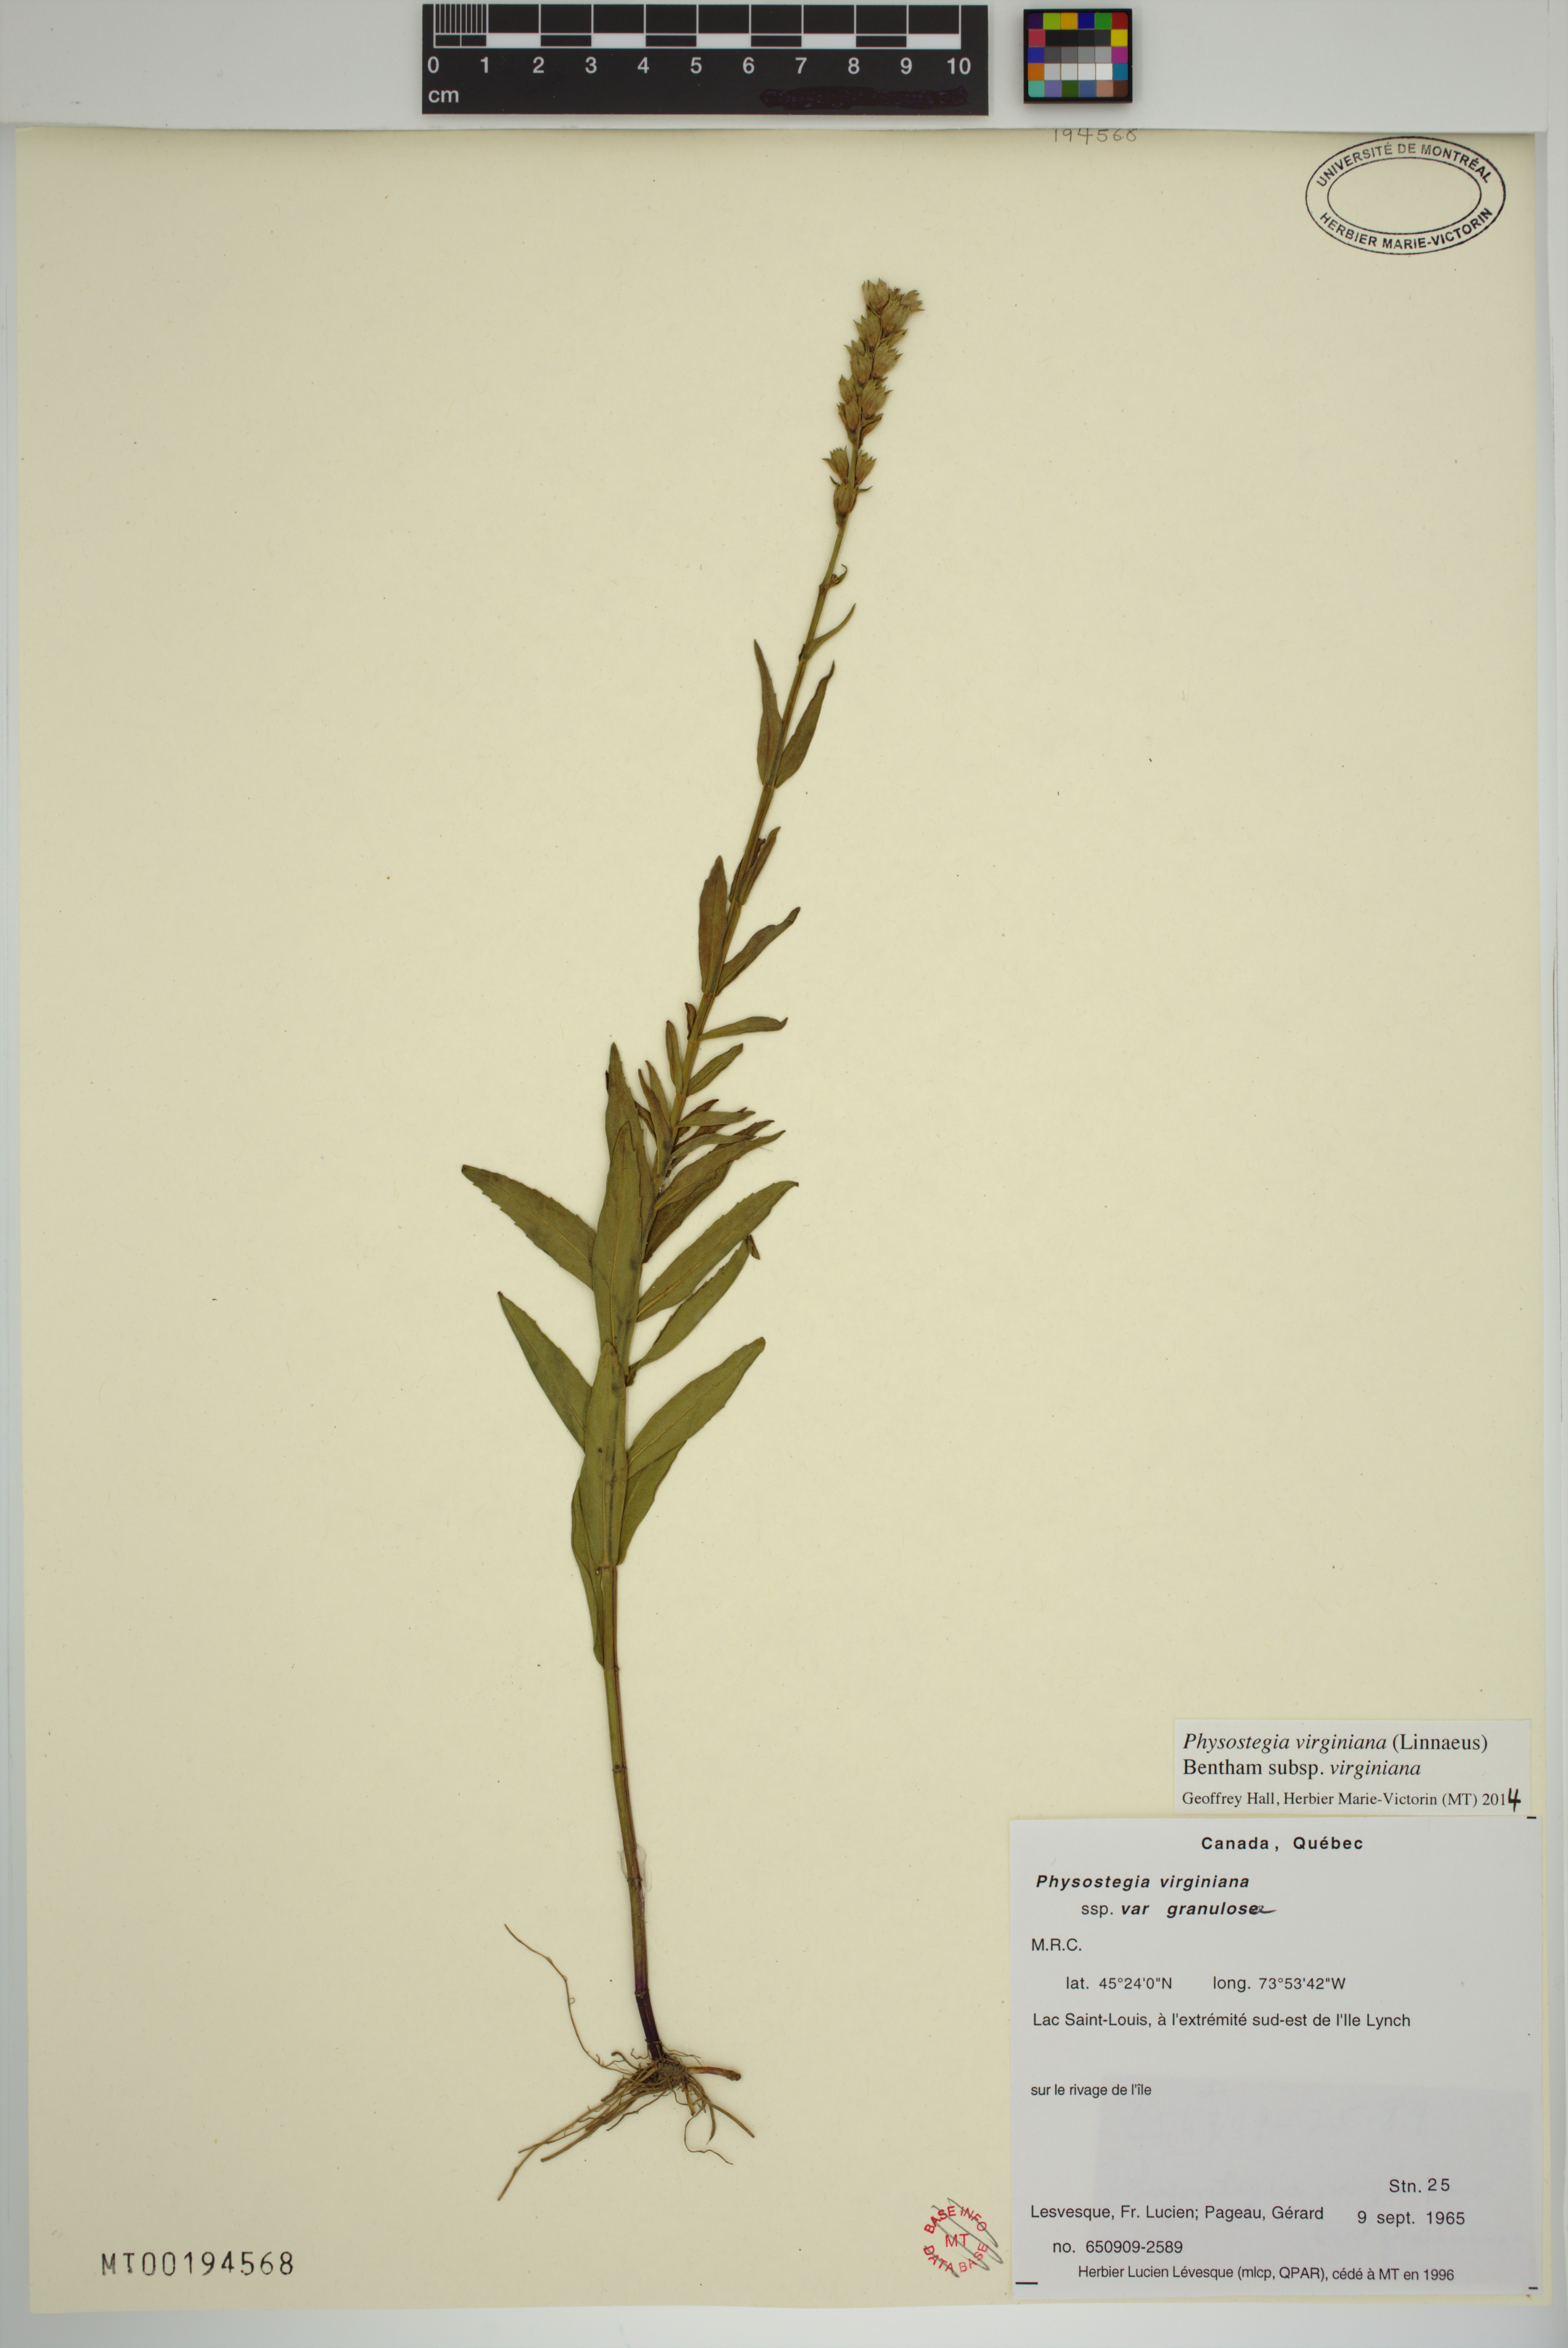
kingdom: Plantae
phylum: Tracheophyta
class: Magnoliopsida
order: Lamiales
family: Lamiaceae
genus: Physostegia
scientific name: Physostegia virginiana
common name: Obedient-plant
